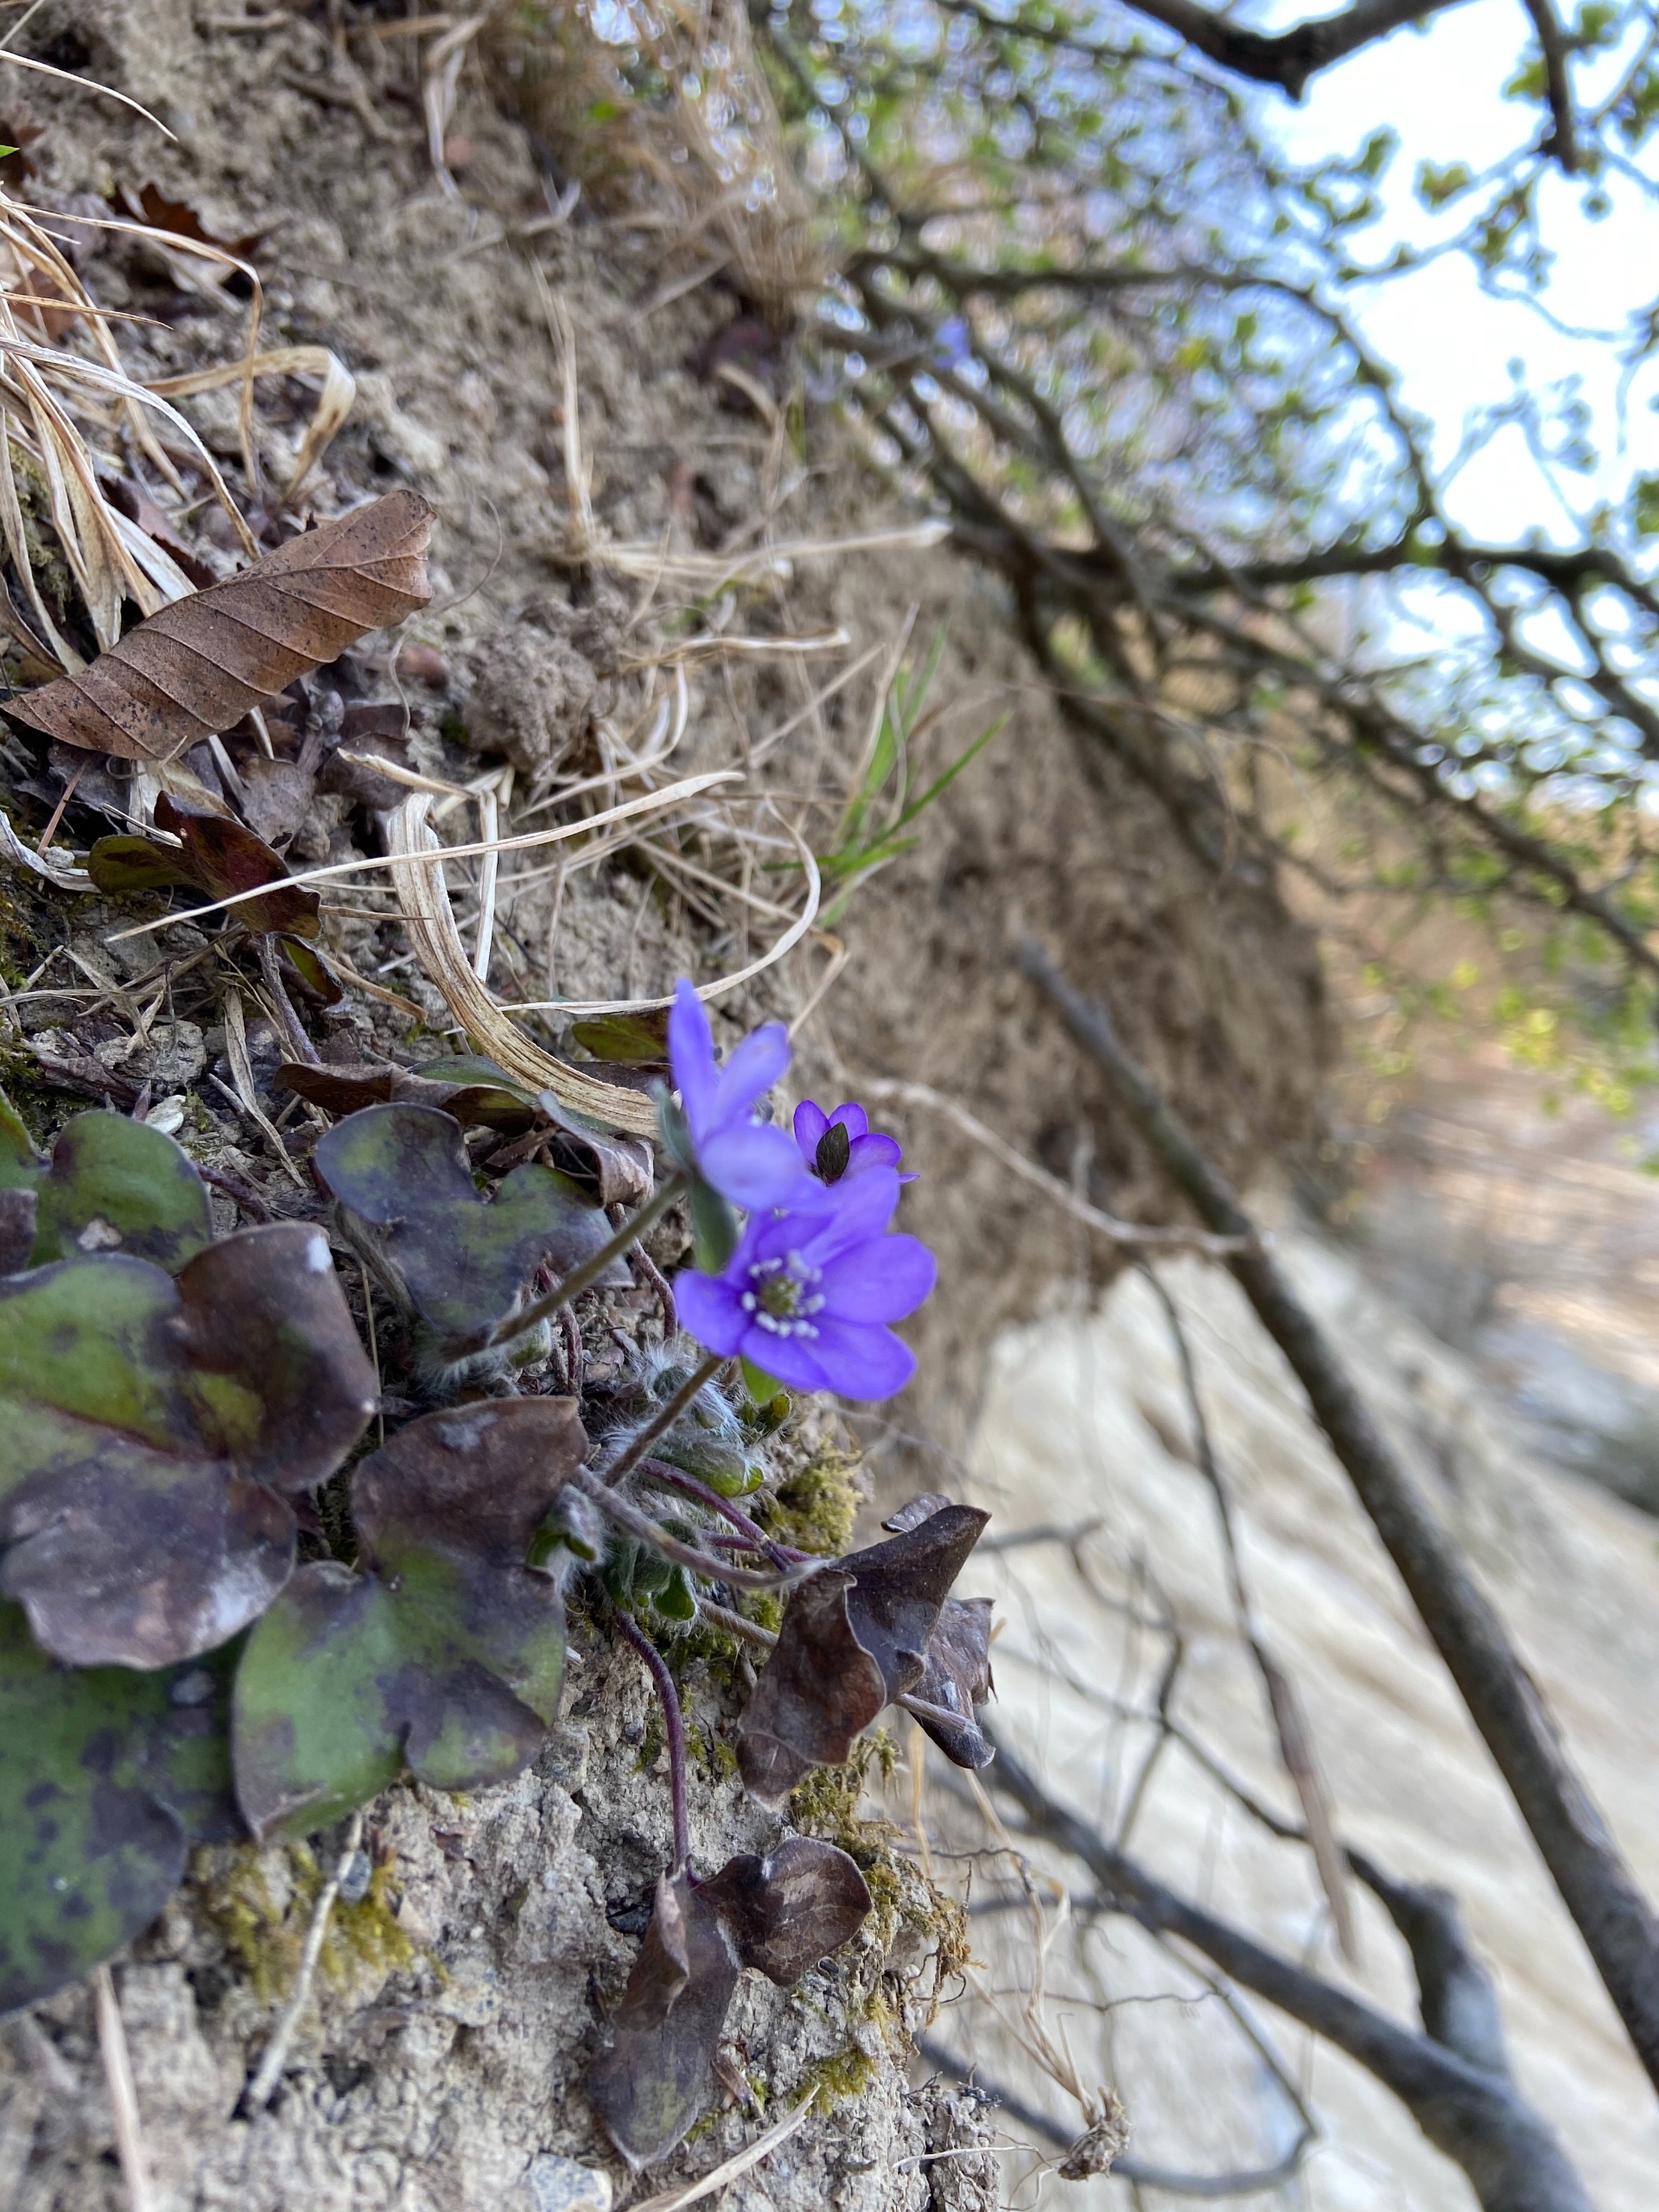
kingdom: Plantae
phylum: Tracheophyta
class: Magnoliopsida
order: Ranunculales
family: Ranunculaceae
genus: Hepatica
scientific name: Hepatica nobilis
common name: Blå anemone
